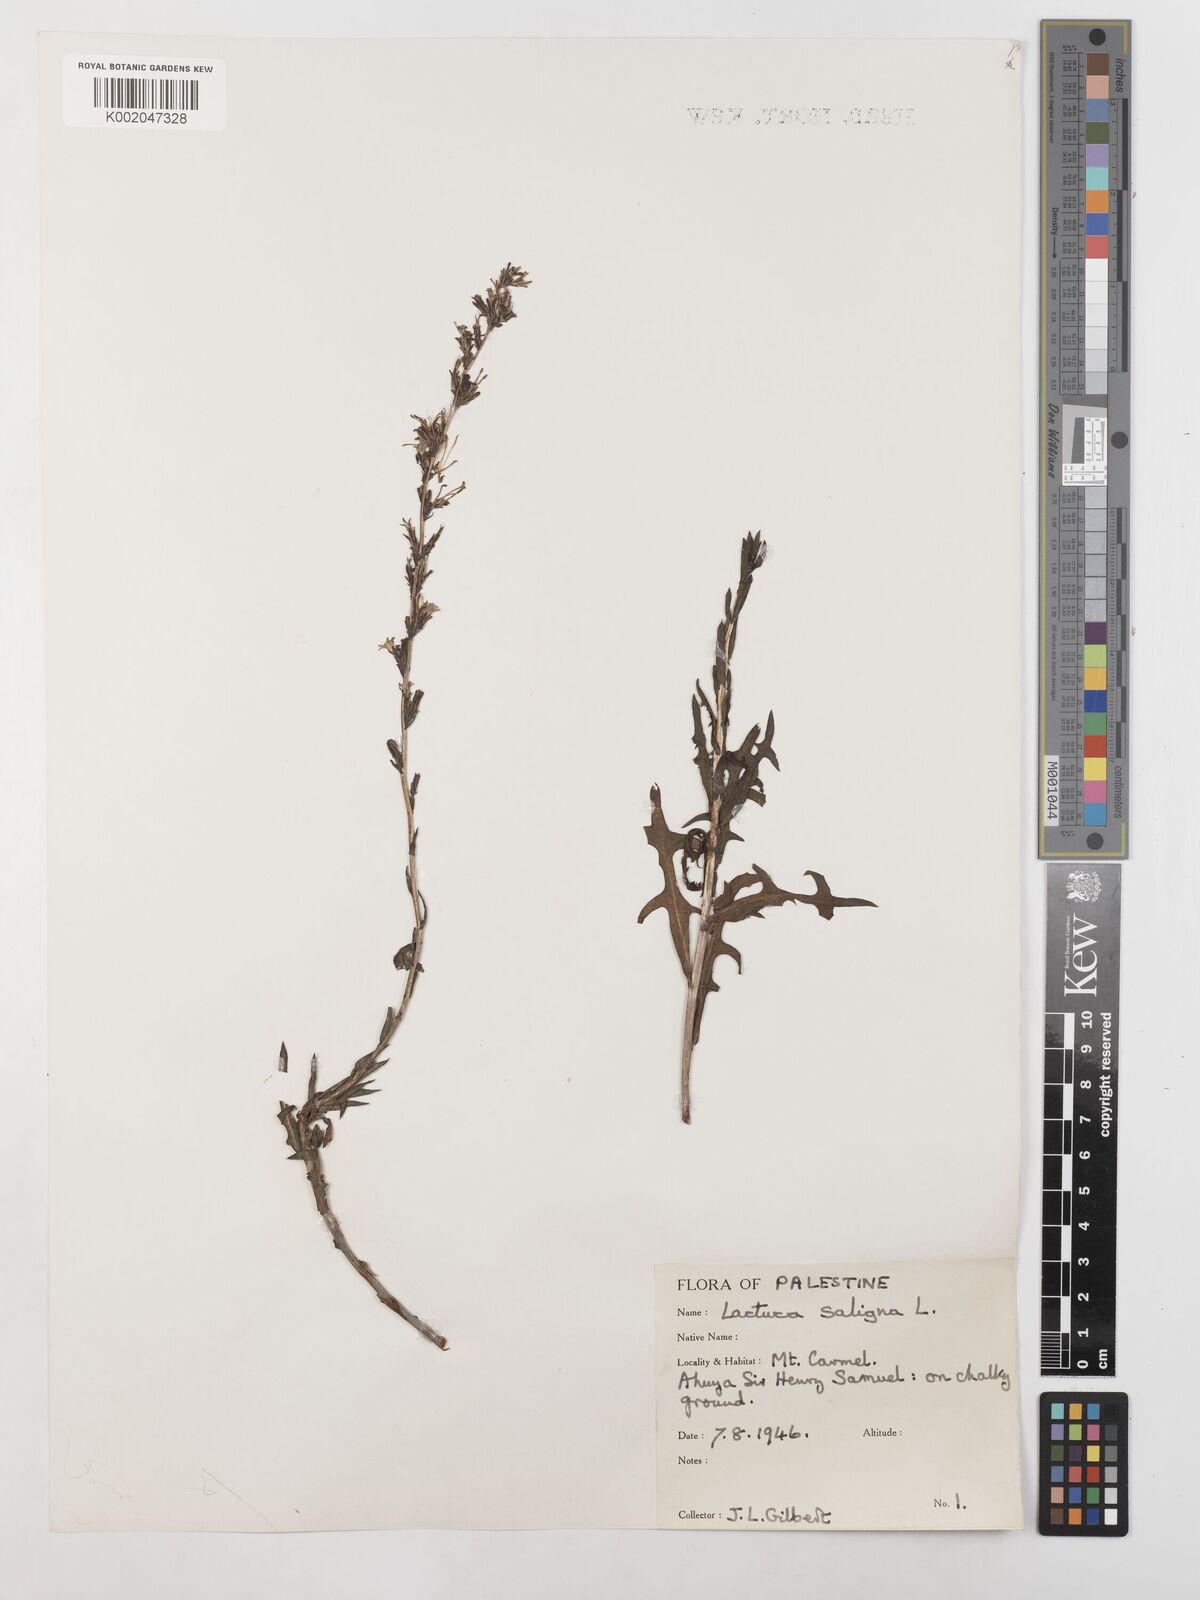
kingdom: Plantae
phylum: Tracheophyta
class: Magnoliopsida
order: Asterales
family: Asteraceae
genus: Lactuca
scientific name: Lactuca saligna
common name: Wild lettuce
